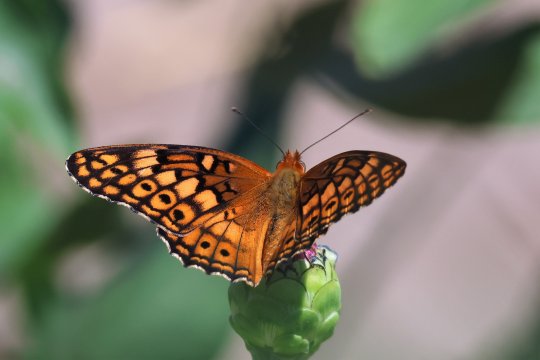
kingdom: Animalia
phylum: Arthropoda
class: Insecta
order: Lepidoptera
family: Nymphalidae
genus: Euptoieta
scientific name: Euptoieta claudia
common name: Variegated Fritillary
